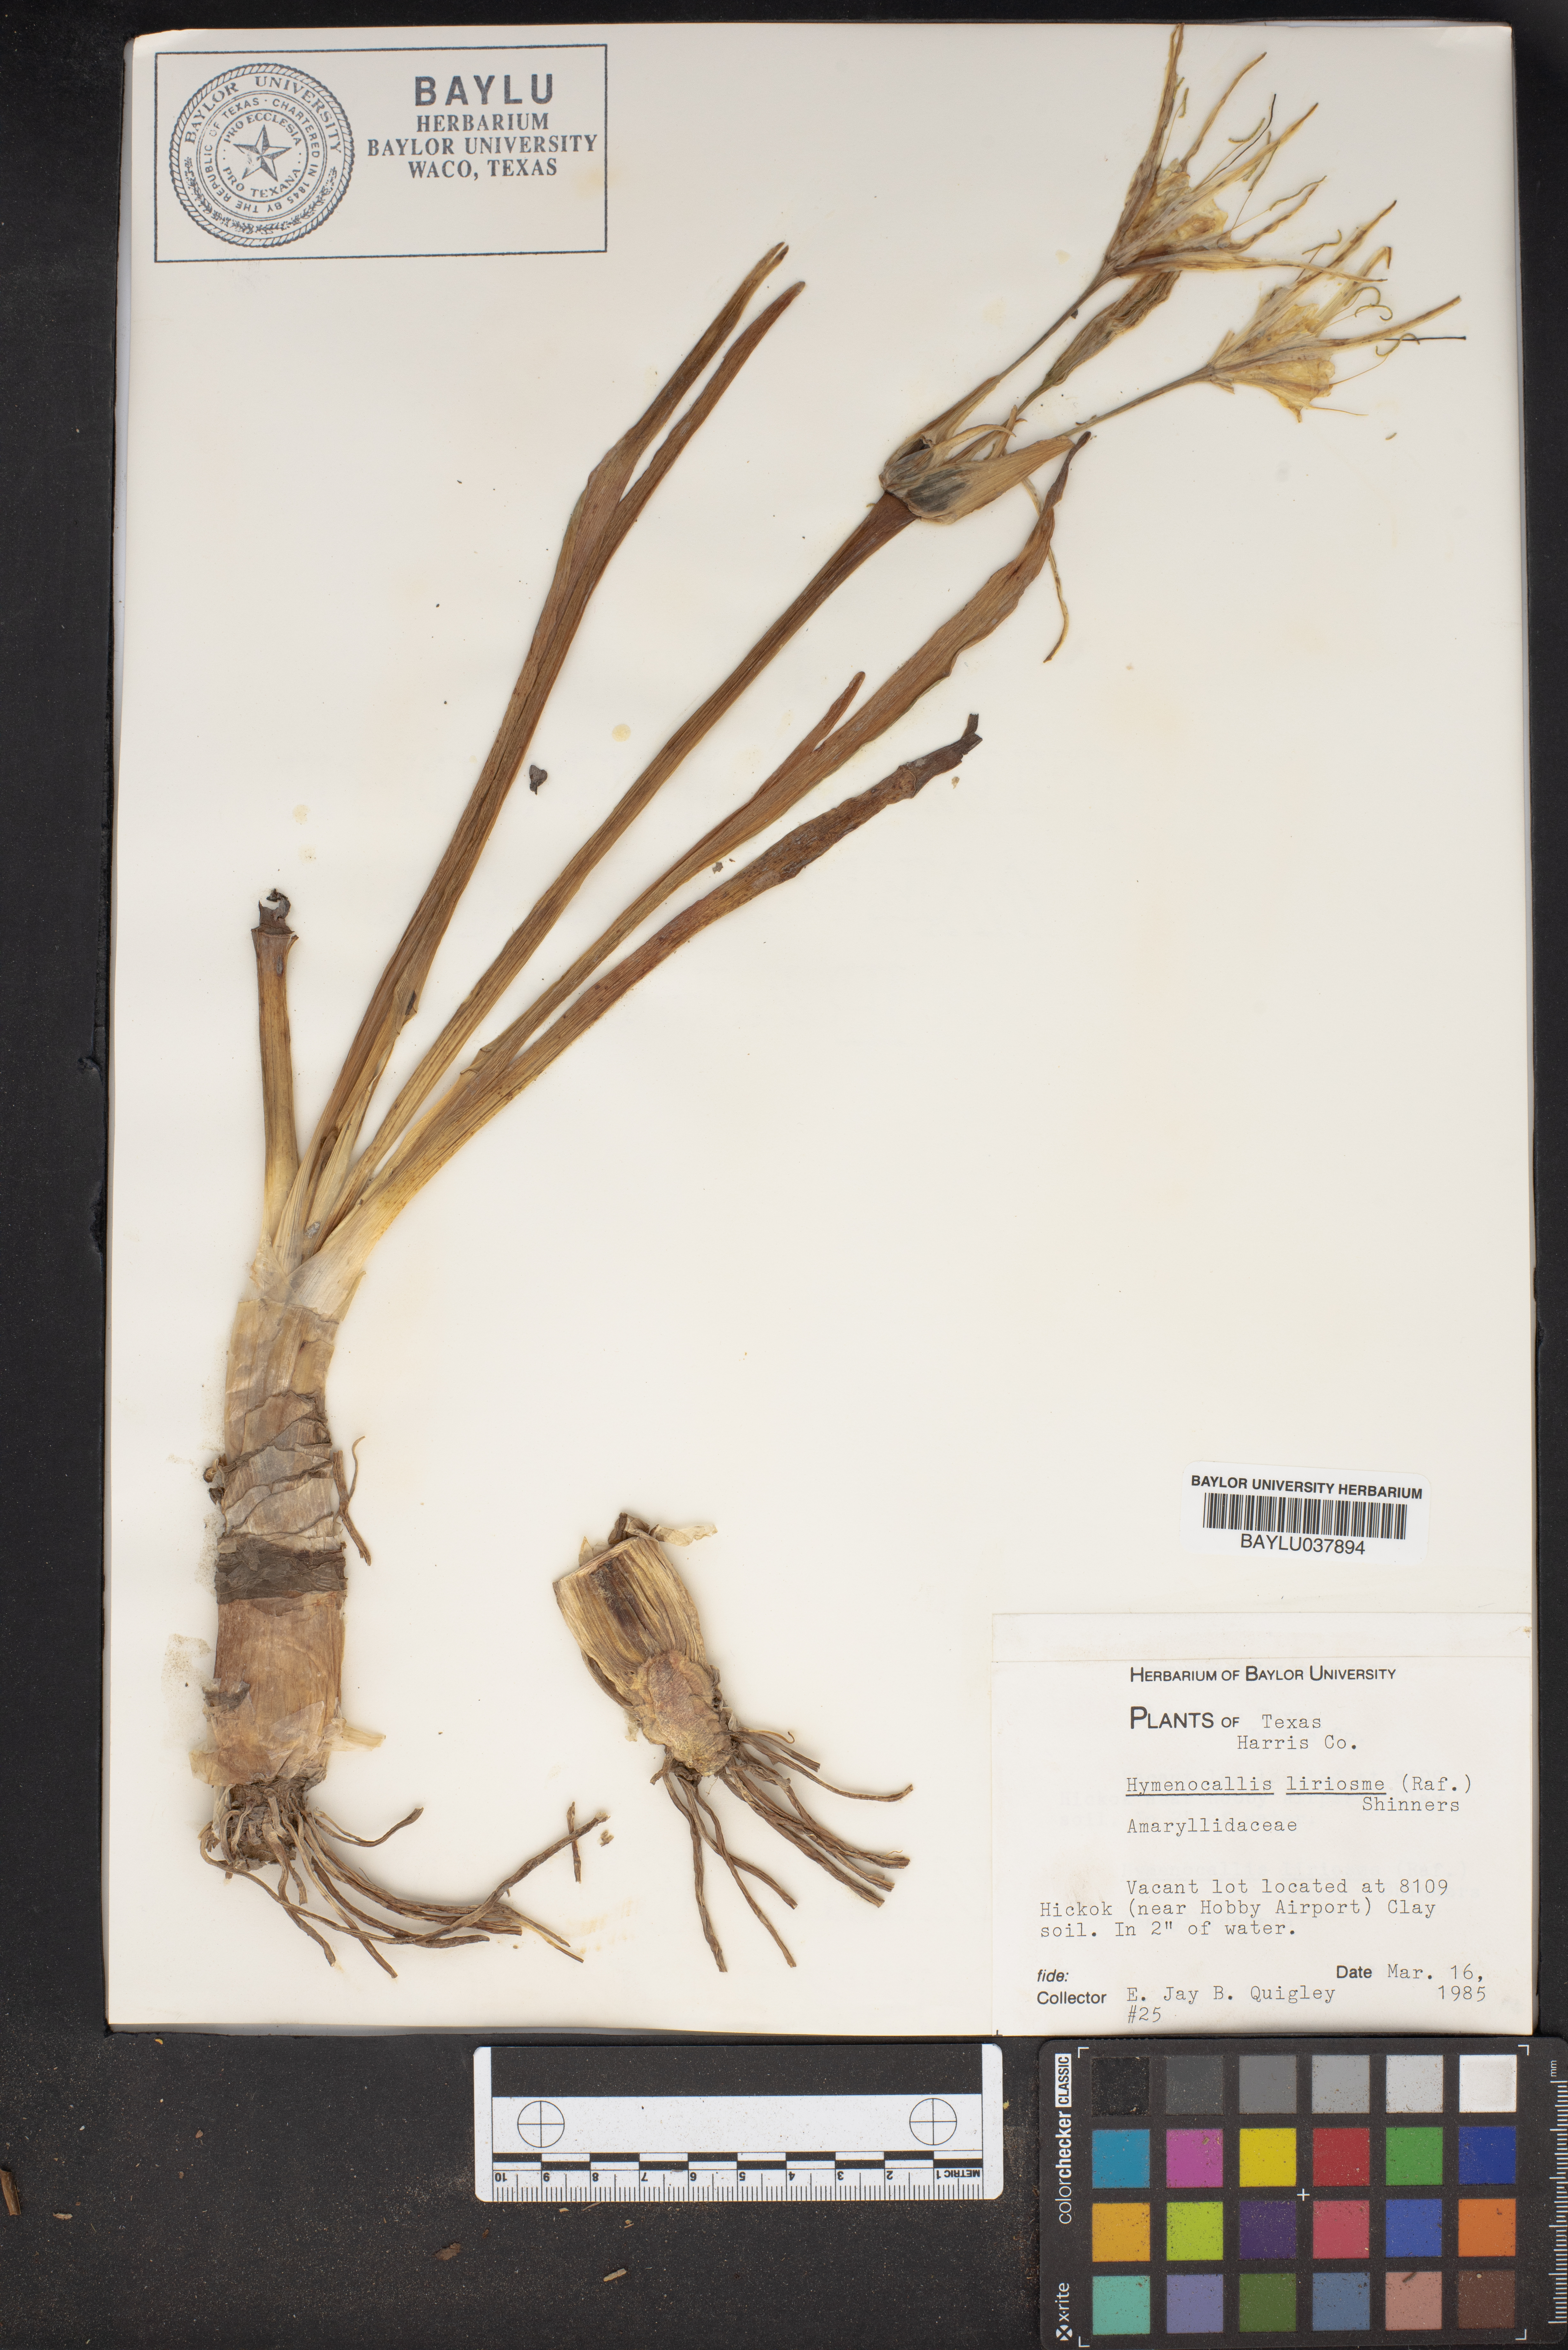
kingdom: Plantae
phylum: Tracheophyta
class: Liliopsida
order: Asparagales
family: Amaryllidaceae
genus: Hymenocallis
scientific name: Hymenocallis liriosme
